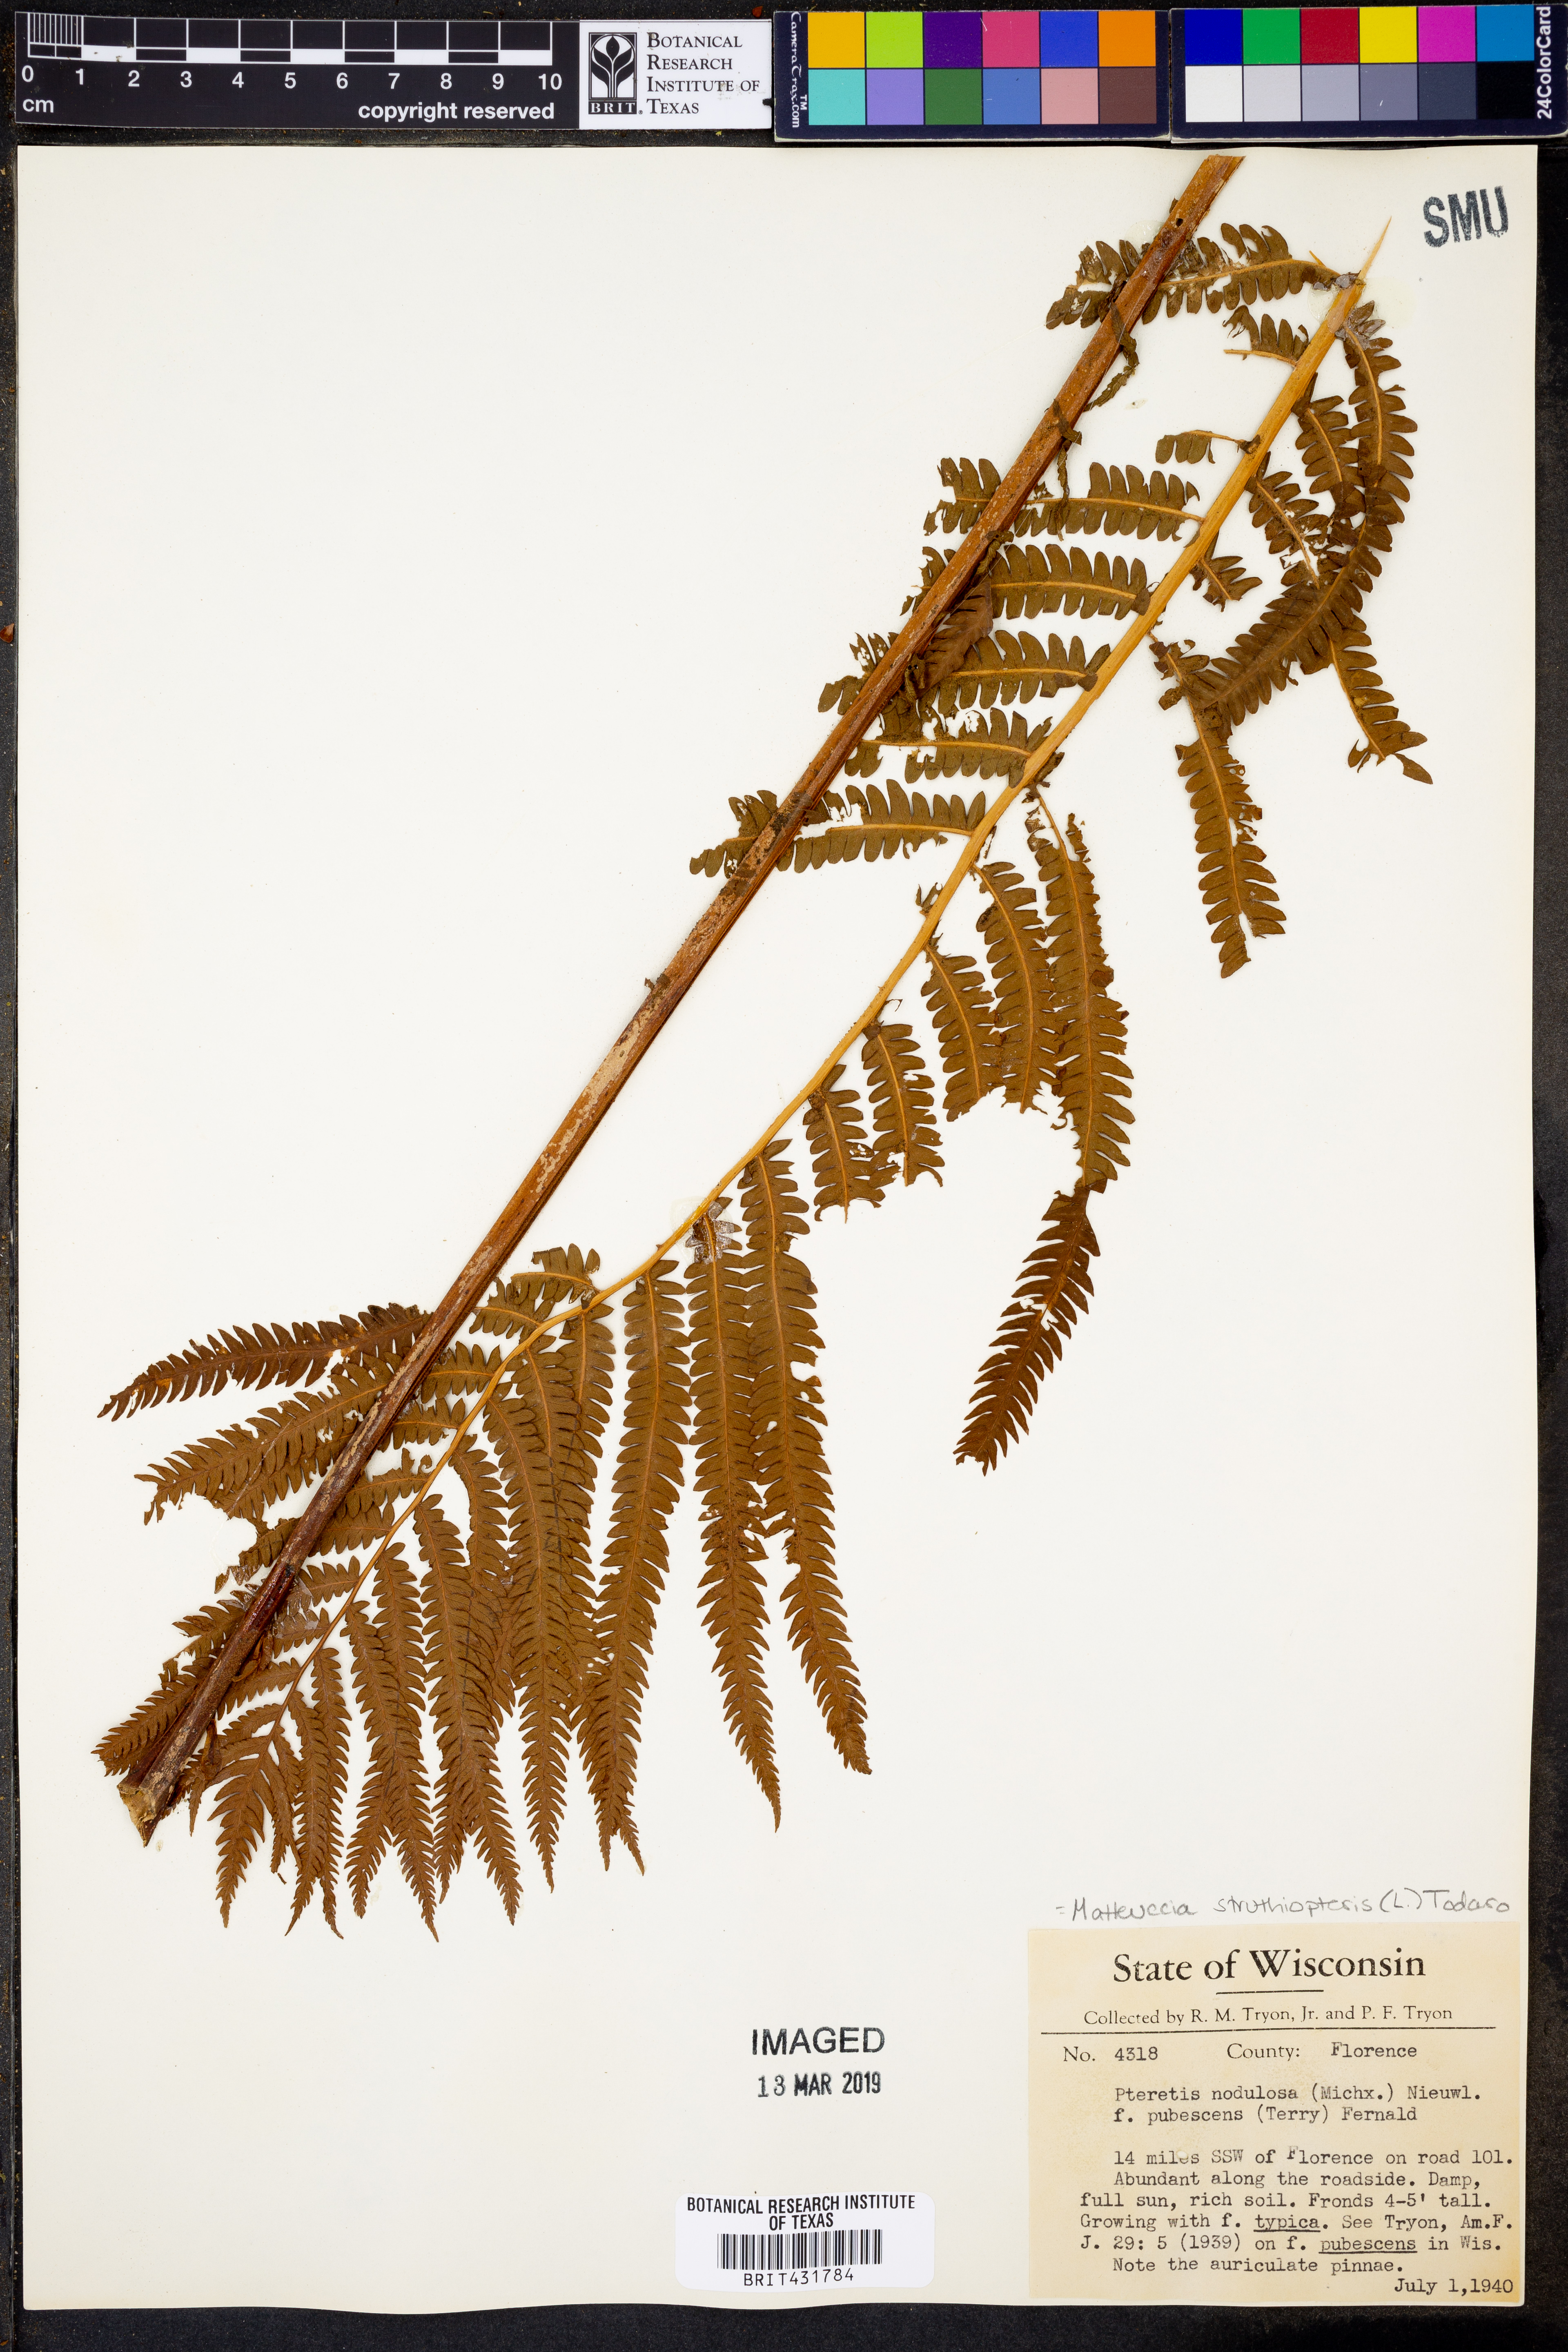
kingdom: Plantae
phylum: Tracheophyta
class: Polypodiopsida
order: Polypodiales
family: Onocleaceae
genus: Matteuccia
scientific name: Matteuccia struthiopteris
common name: Ostrich fern
